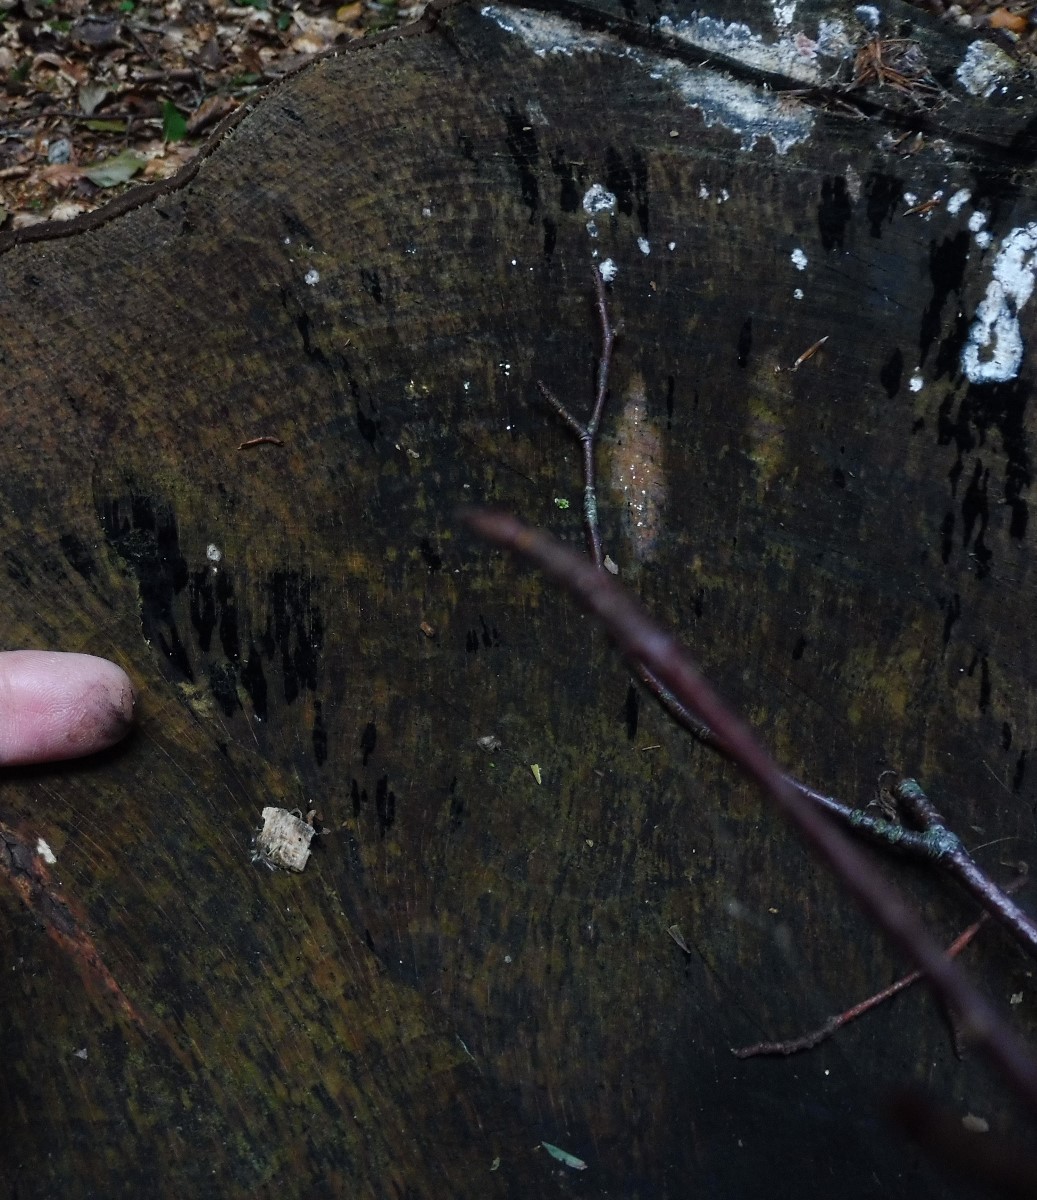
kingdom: Fungi
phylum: Ascomycota
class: Leotiomycetes
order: Helotiales
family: Helotiaceae
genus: Bispora
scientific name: Bispora pallescens
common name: måtte-snitskive
